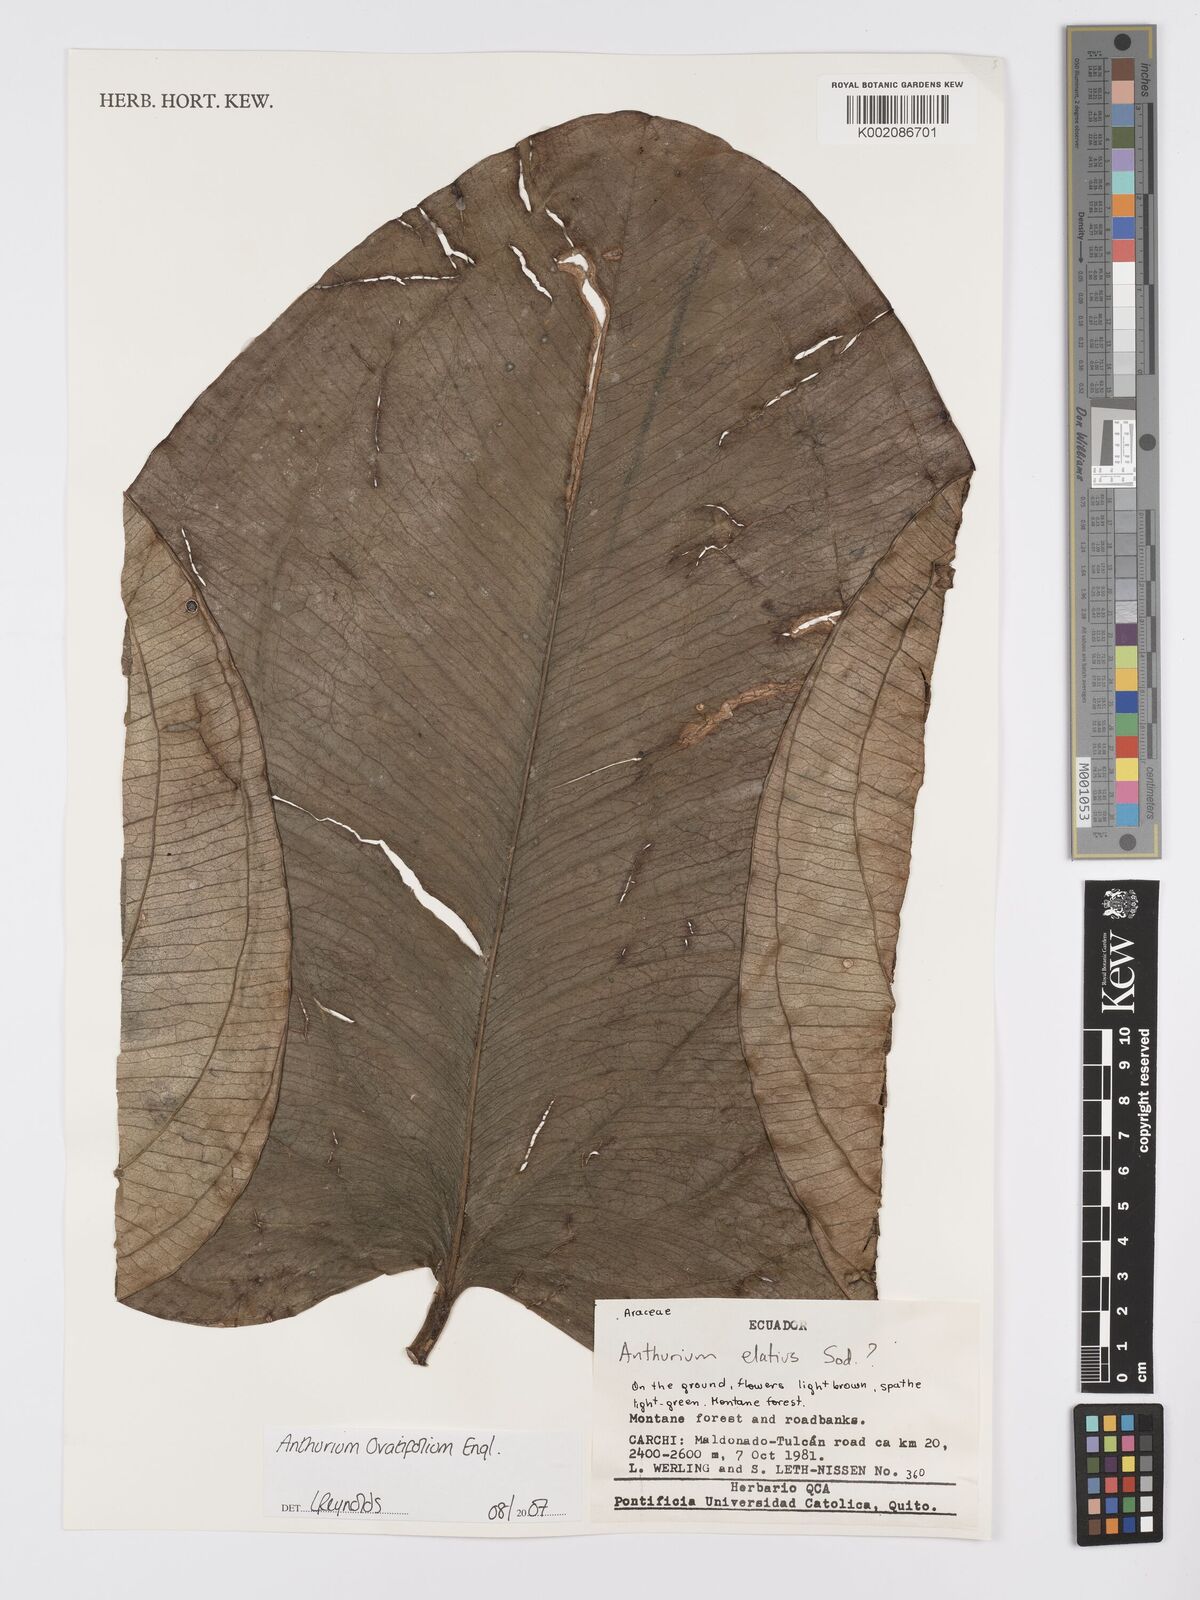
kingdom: Plantae
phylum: Tracheophyta
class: Liliopsida
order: Alismatales
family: Araceae
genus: Anthurium
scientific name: Anthurium ovatifolium
